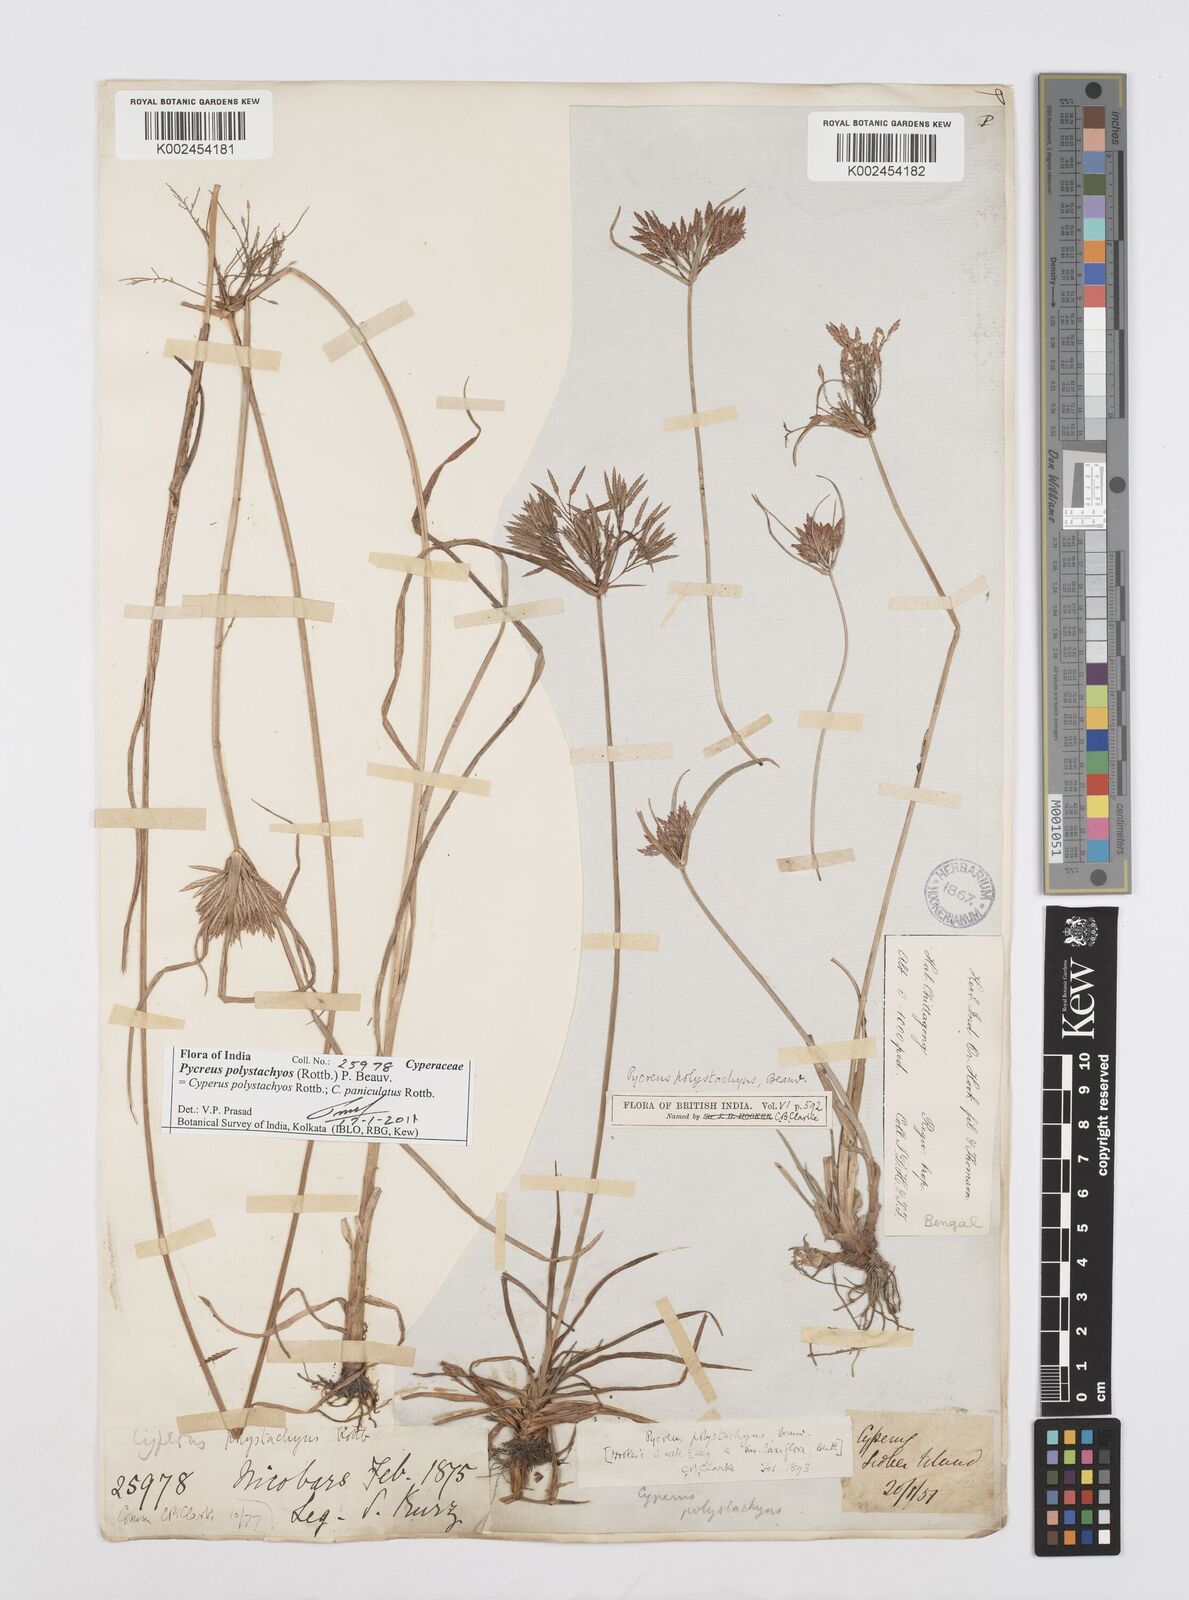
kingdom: Plantae
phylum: Tracheophyta
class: Liliopsida
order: Poales
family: Cyperaceae
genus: Cyperus
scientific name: Cyperus polystachyos
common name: Bunchy flat sedge
